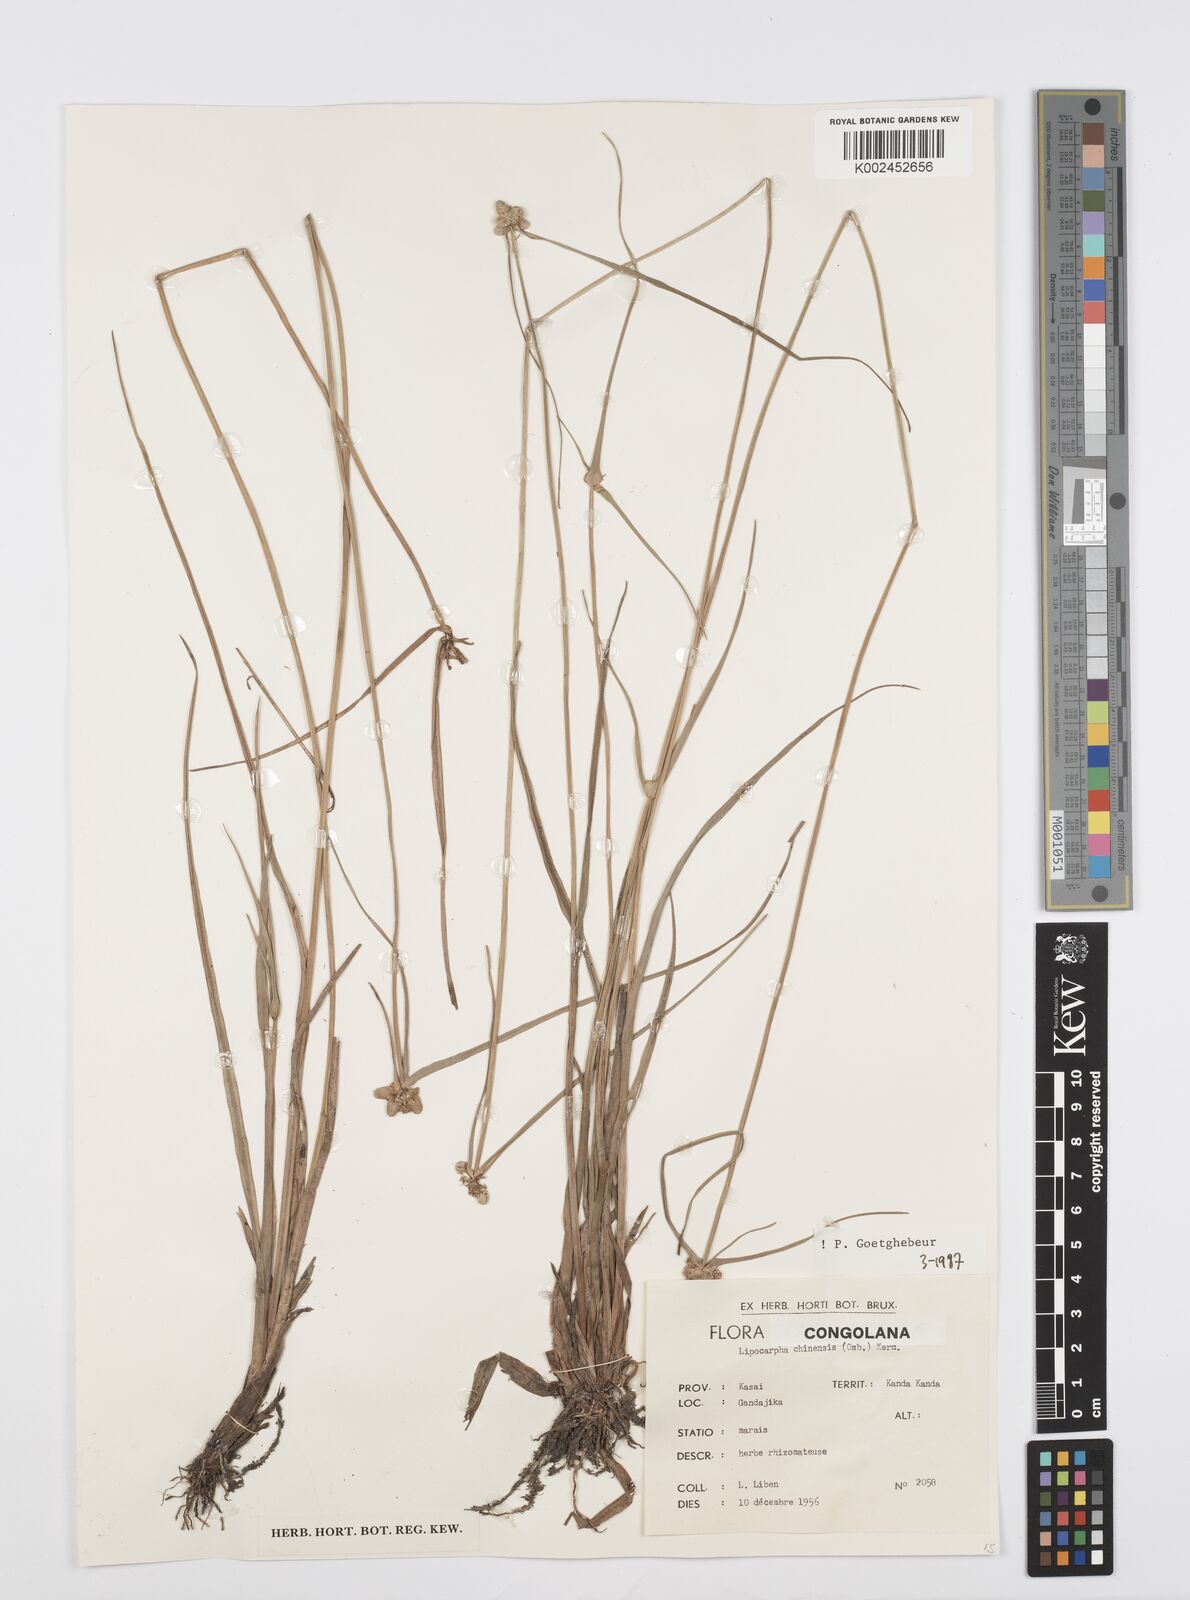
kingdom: Plantae
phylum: Tracheophyta
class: Liliopsida
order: Poales
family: Cyperaceae
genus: Cyperus
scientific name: Cyperus albescens
